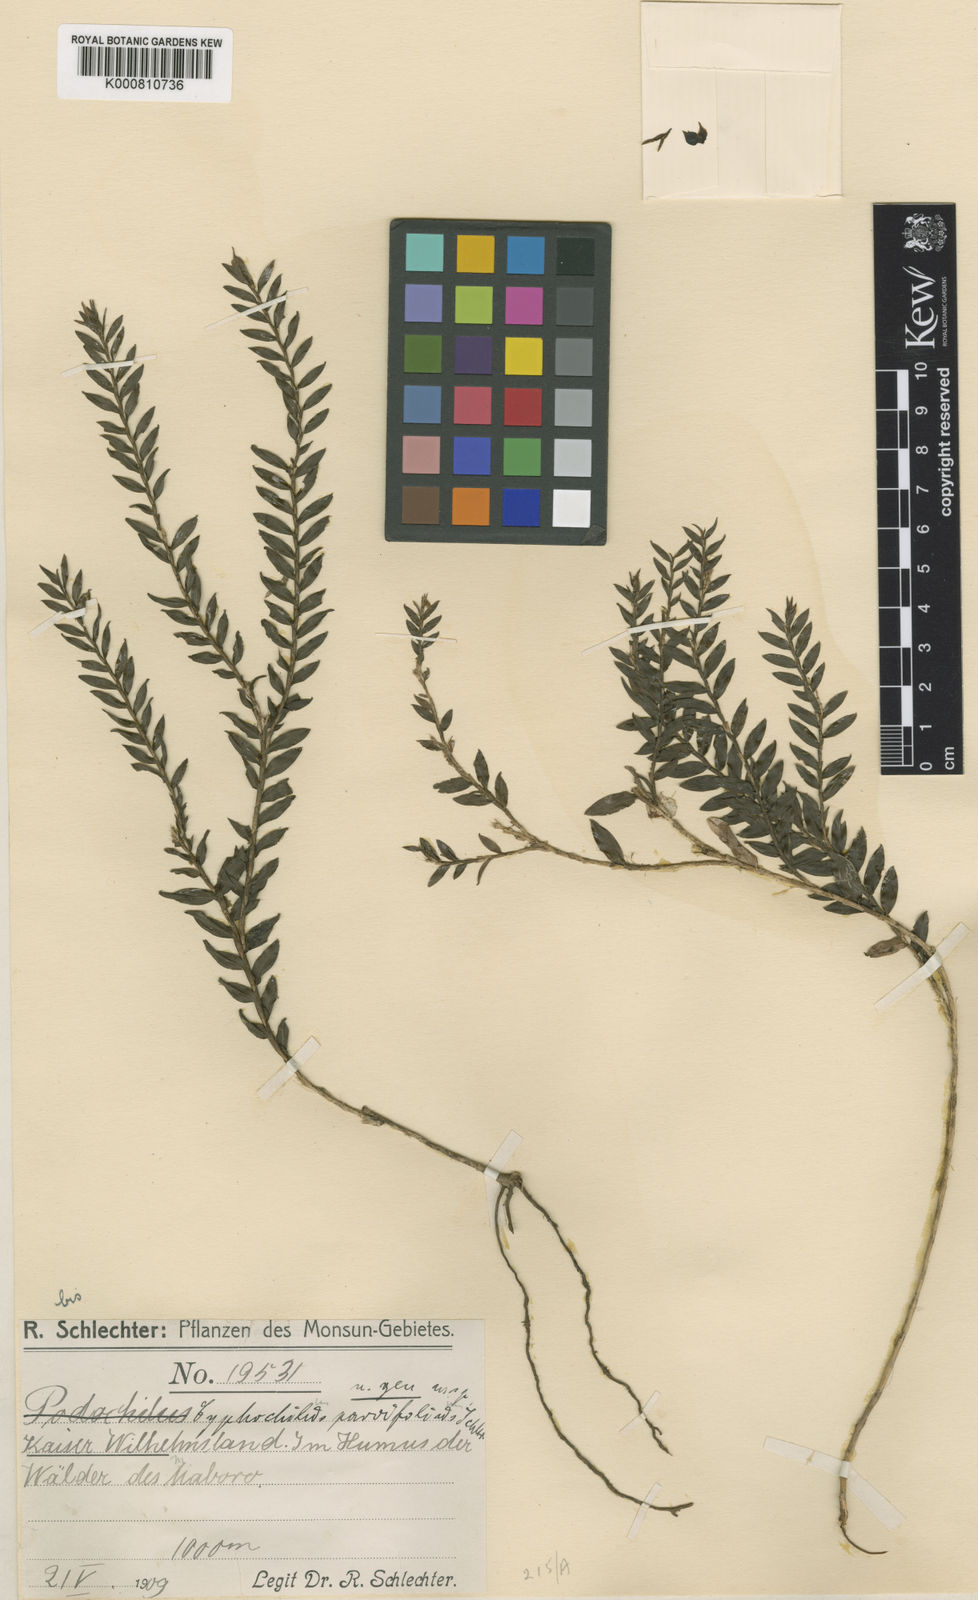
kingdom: Plantae
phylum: Tracheophyta
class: Liliopsida
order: Asparagales
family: Orchidaceae
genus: Appendicula
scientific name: Appendicula parvifolia
